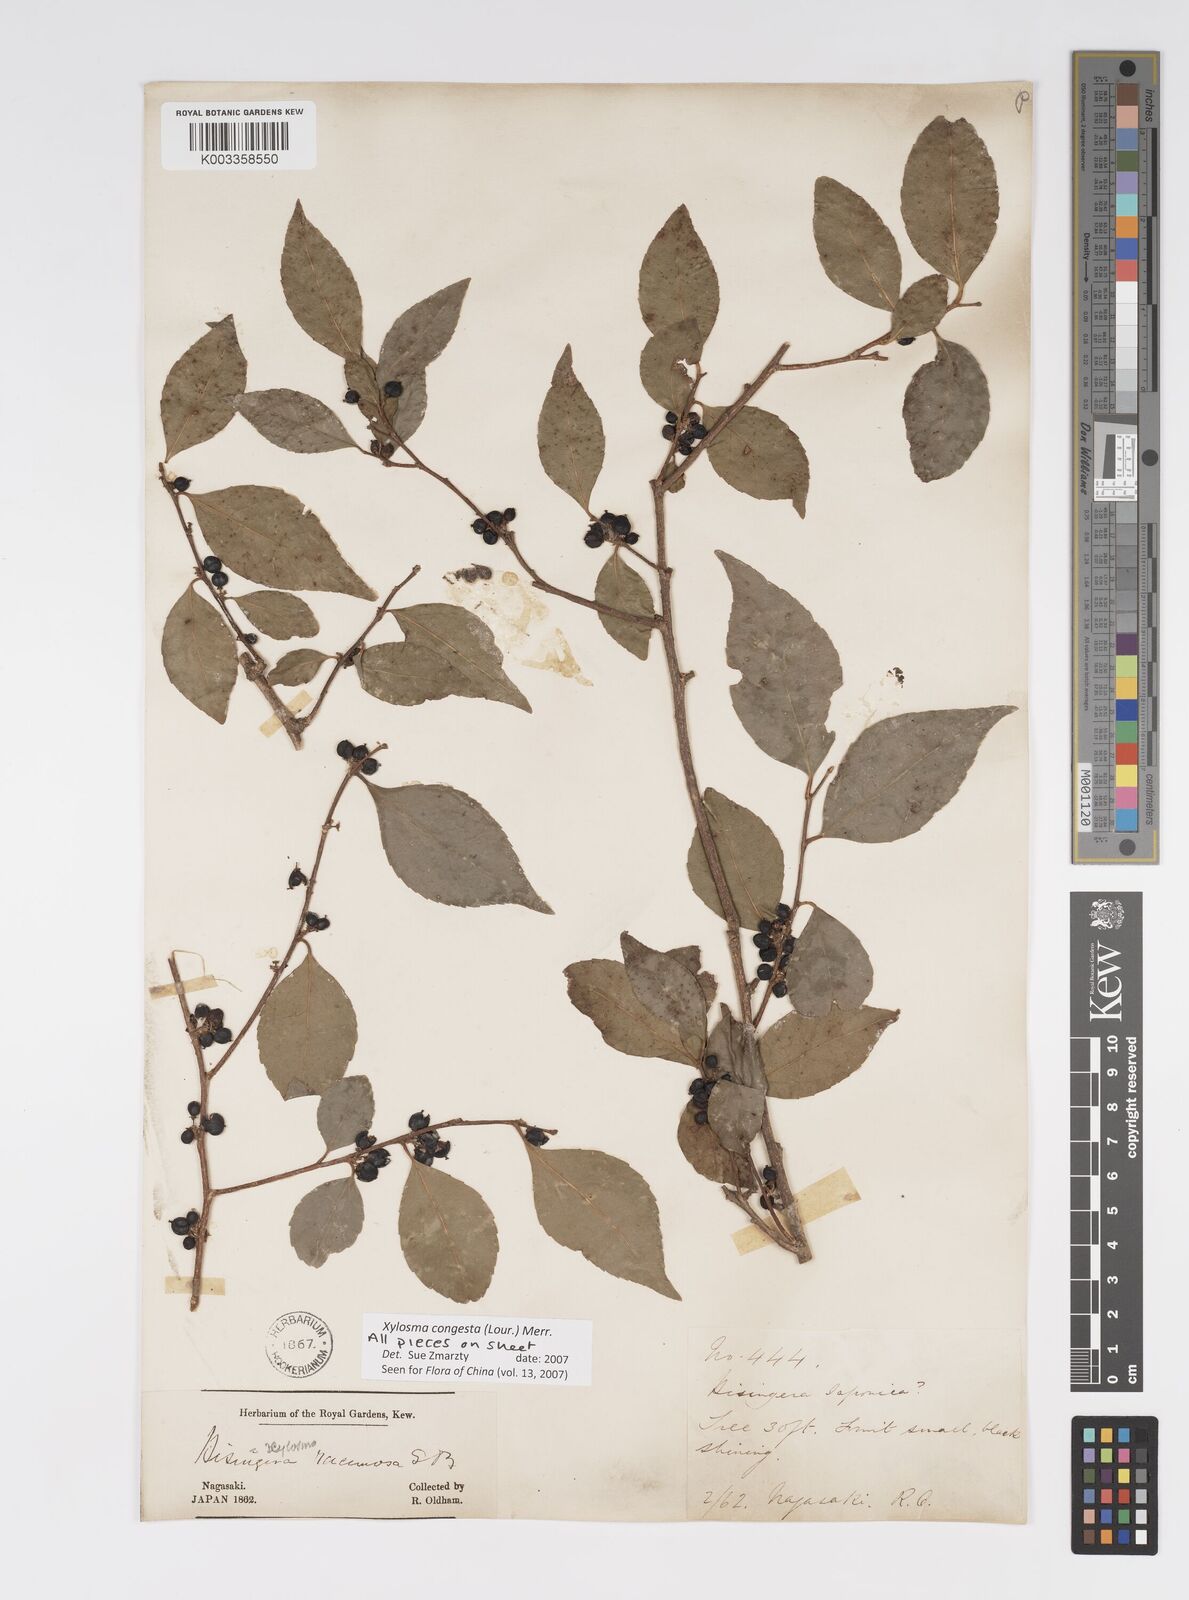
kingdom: Plantae
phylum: Tracheophyta
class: Magnoliopsida
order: Malpighiales
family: Salicaceae
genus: Xylosma
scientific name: Xylosma racemosum
